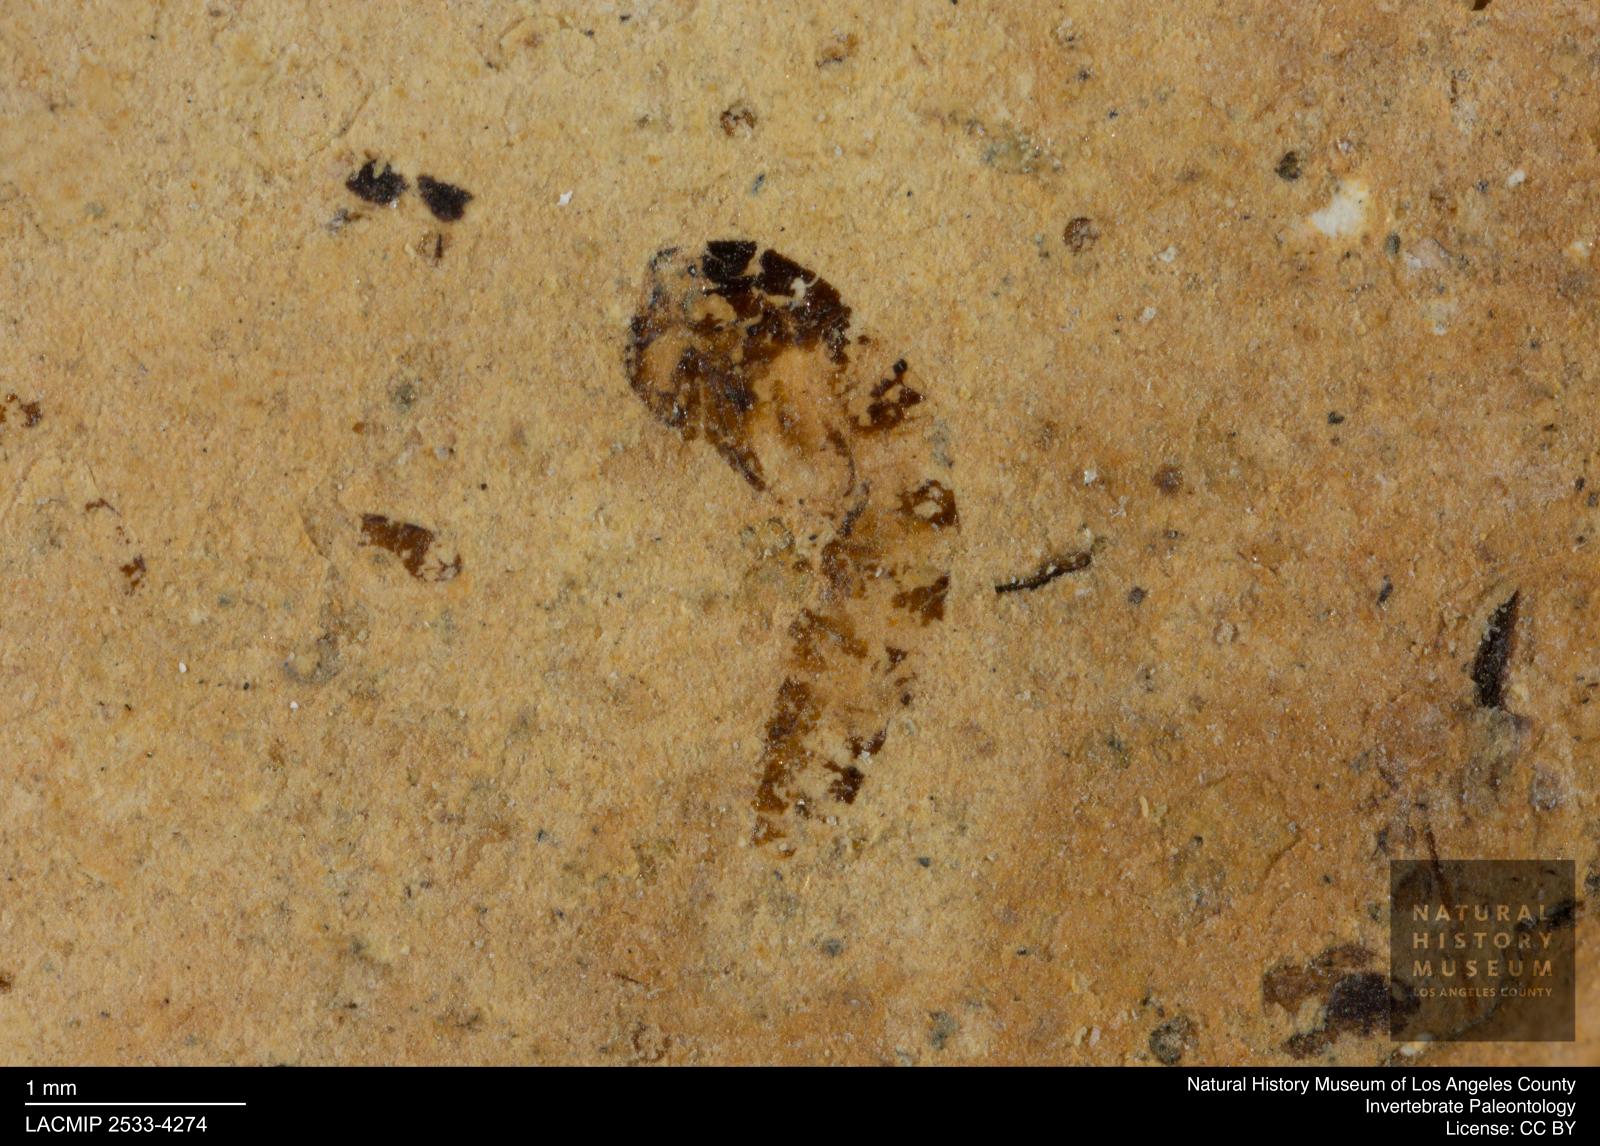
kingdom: Animalia
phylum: Arthropoda
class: Insecta
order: Diptera
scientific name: Diptera
